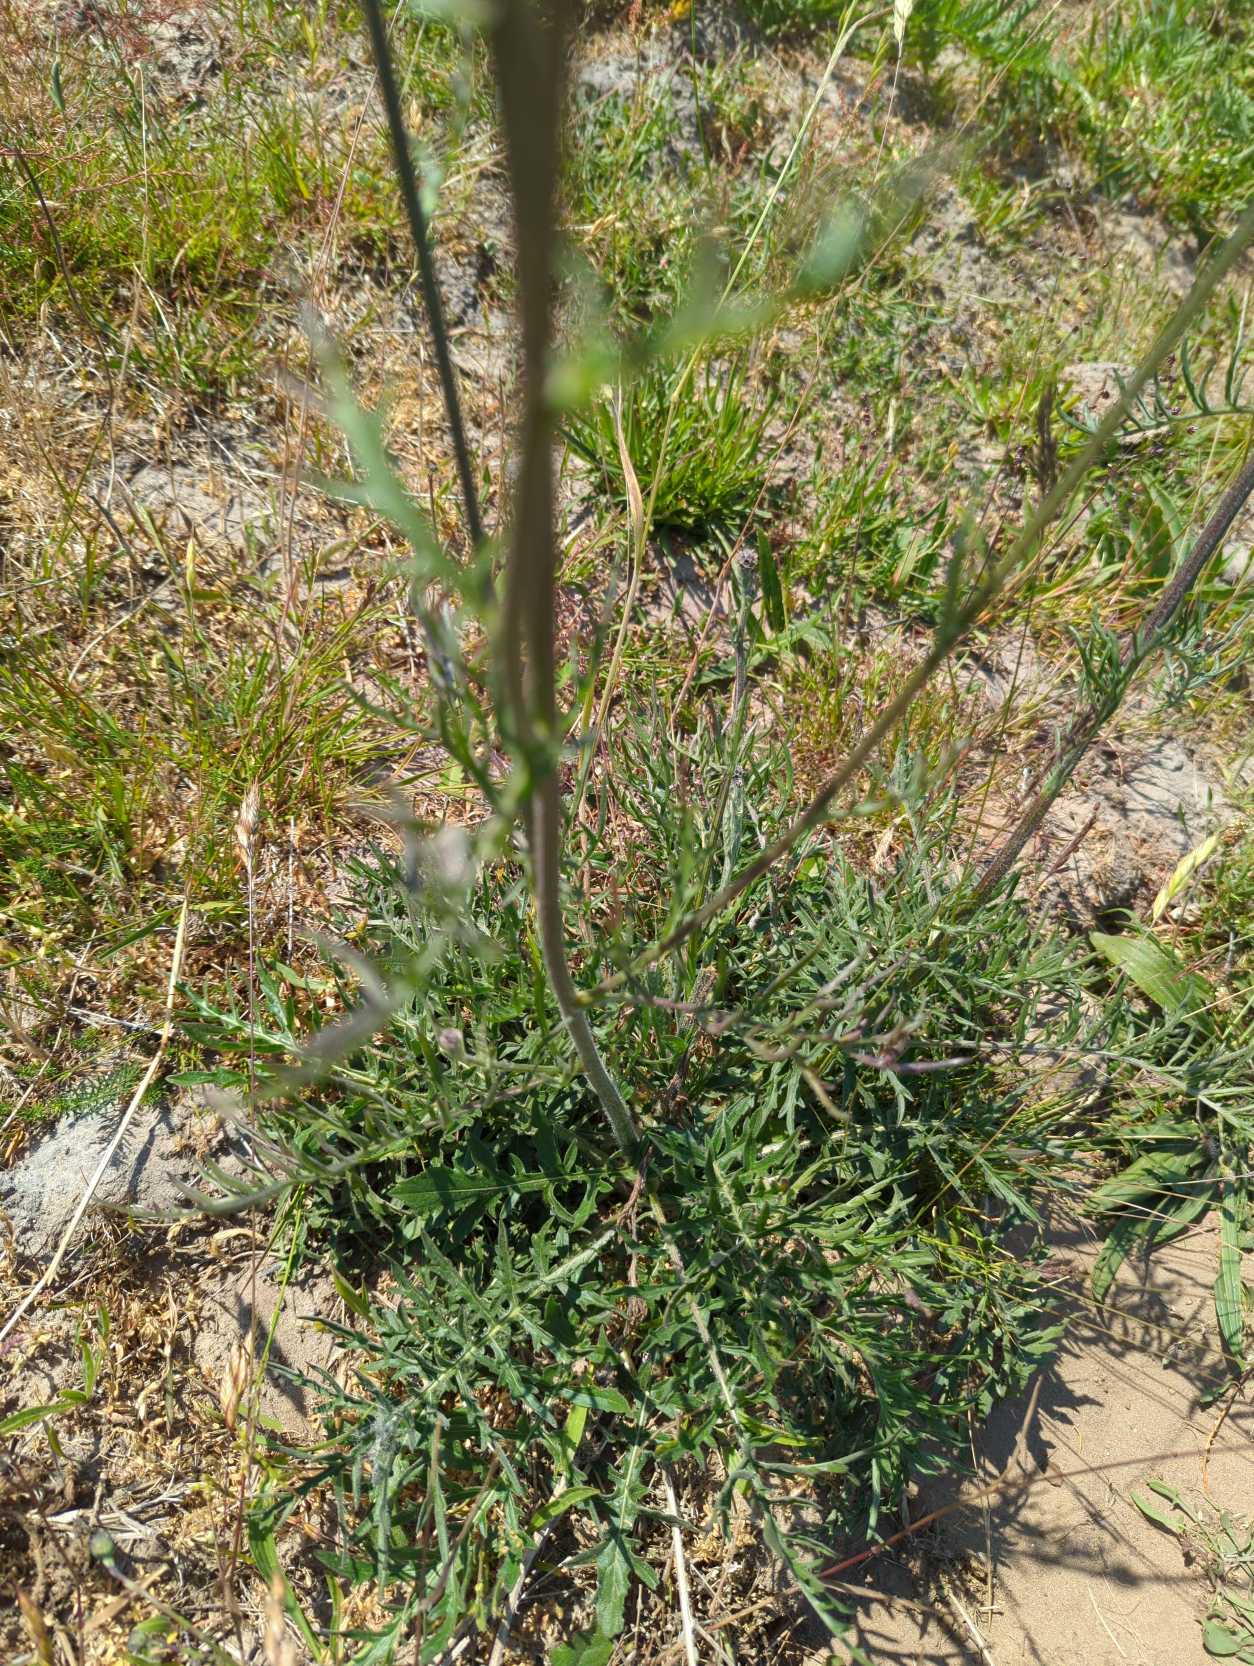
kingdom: Plantae
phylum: Tracheophyta
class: Magnoliopsida
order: Asterales
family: Asteraceae
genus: Centaurea
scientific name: Centaurea scabiosa
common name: Stor knopurt
